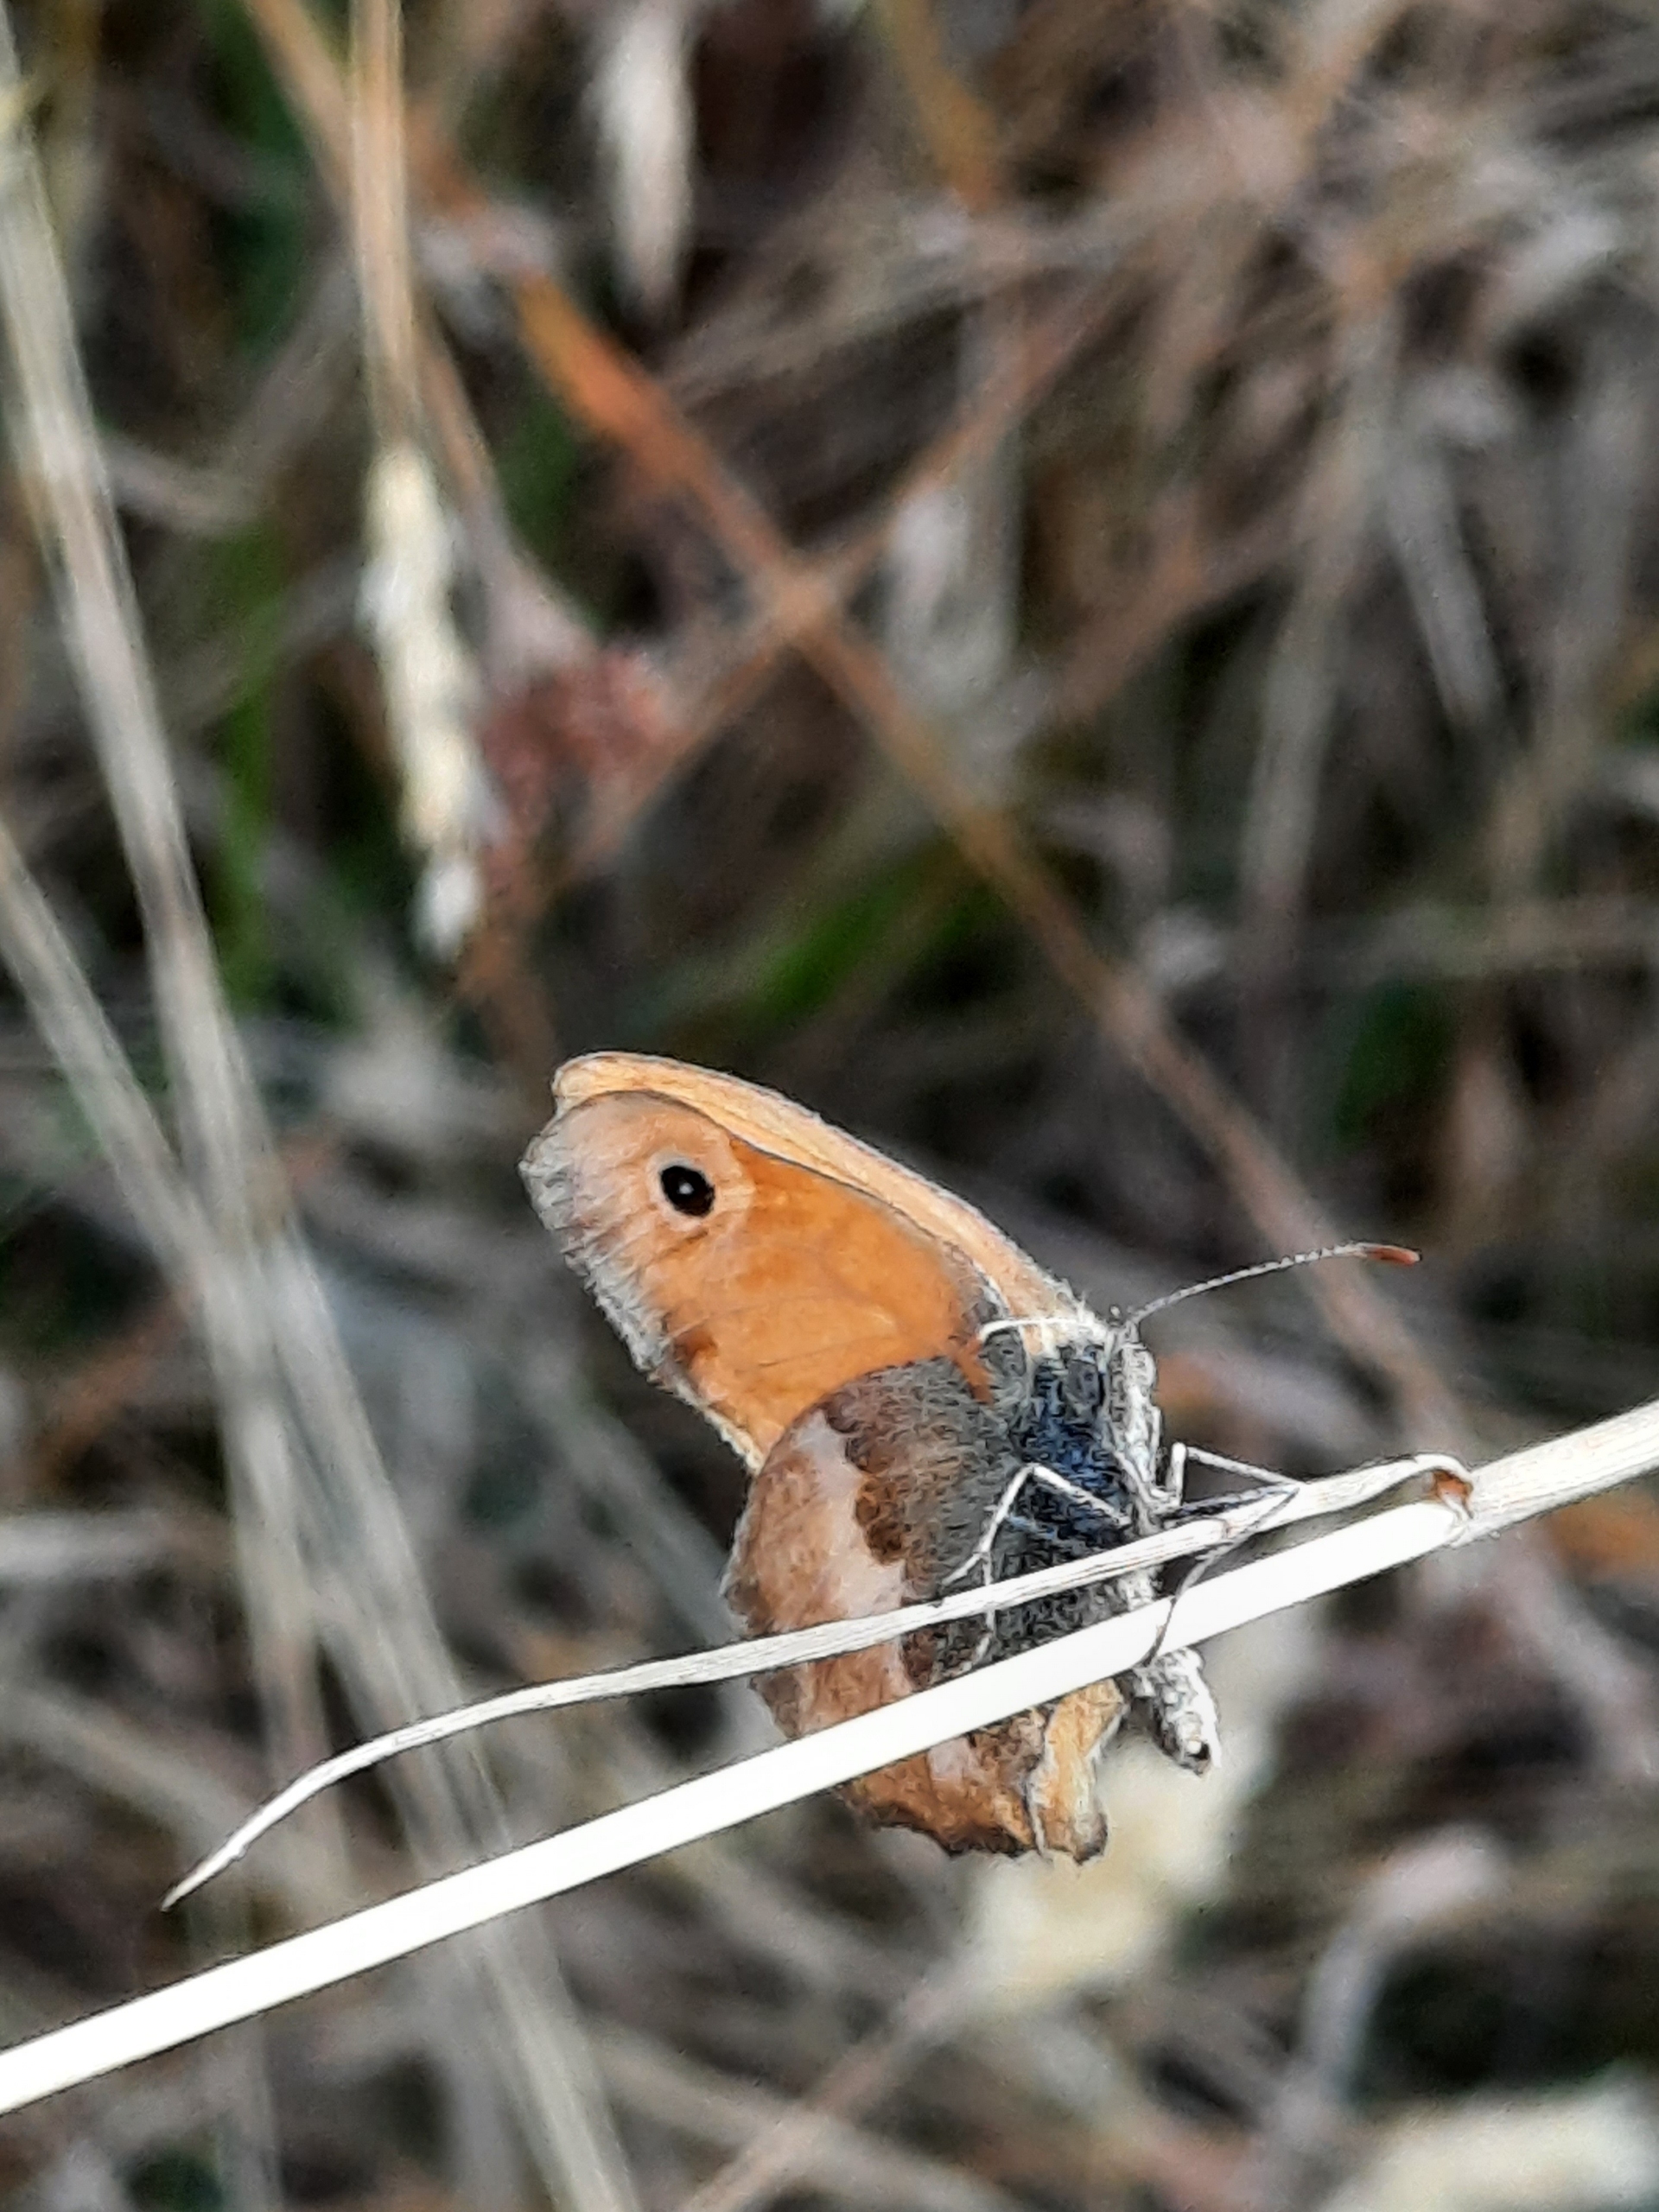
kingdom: Animalia
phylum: Arthropoda
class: Insecta
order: Lepidoptera
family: Nymphalidae
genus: Coenonympha
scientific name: Coenonympha pamphilus
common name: Okkergul randøje
